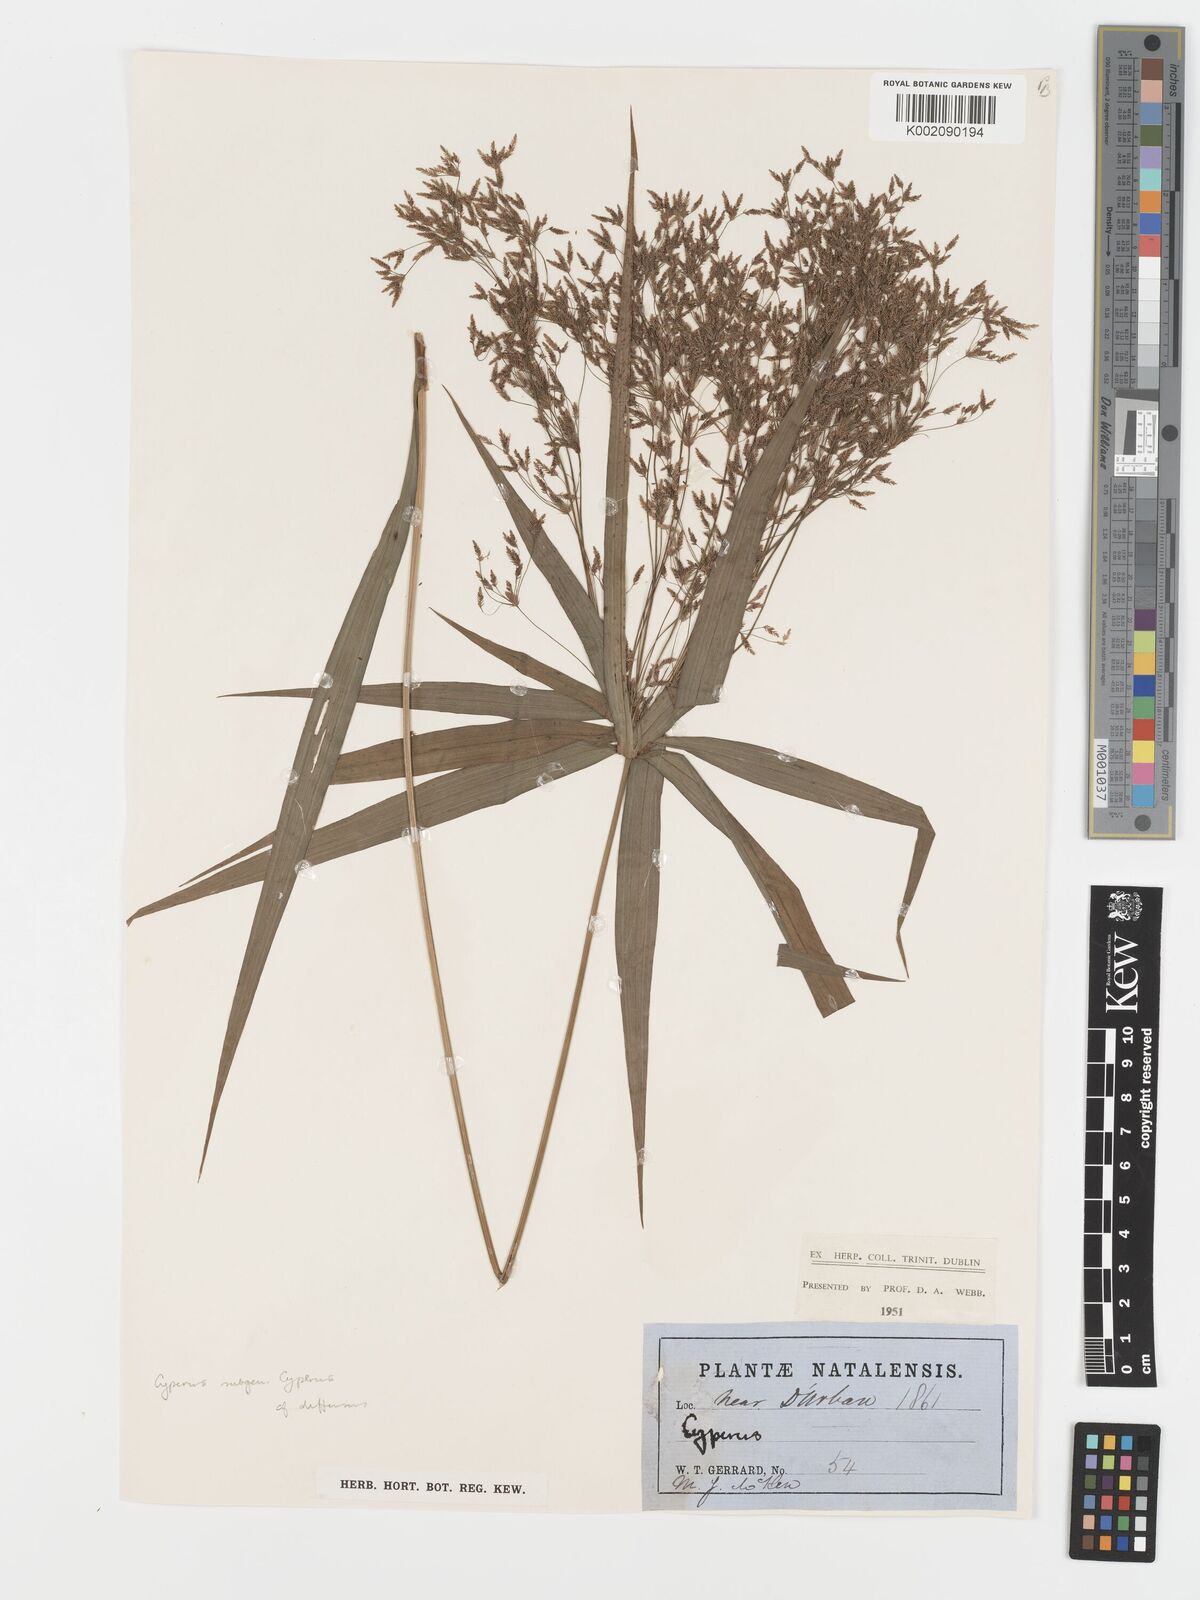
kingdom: Plantae
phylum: Tracheophyta
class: Liliopsida
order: Poales
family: Cyperaceae
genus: Cyperus
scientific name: Cyperus albostriatus
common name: Dwarf umbrella-grass
